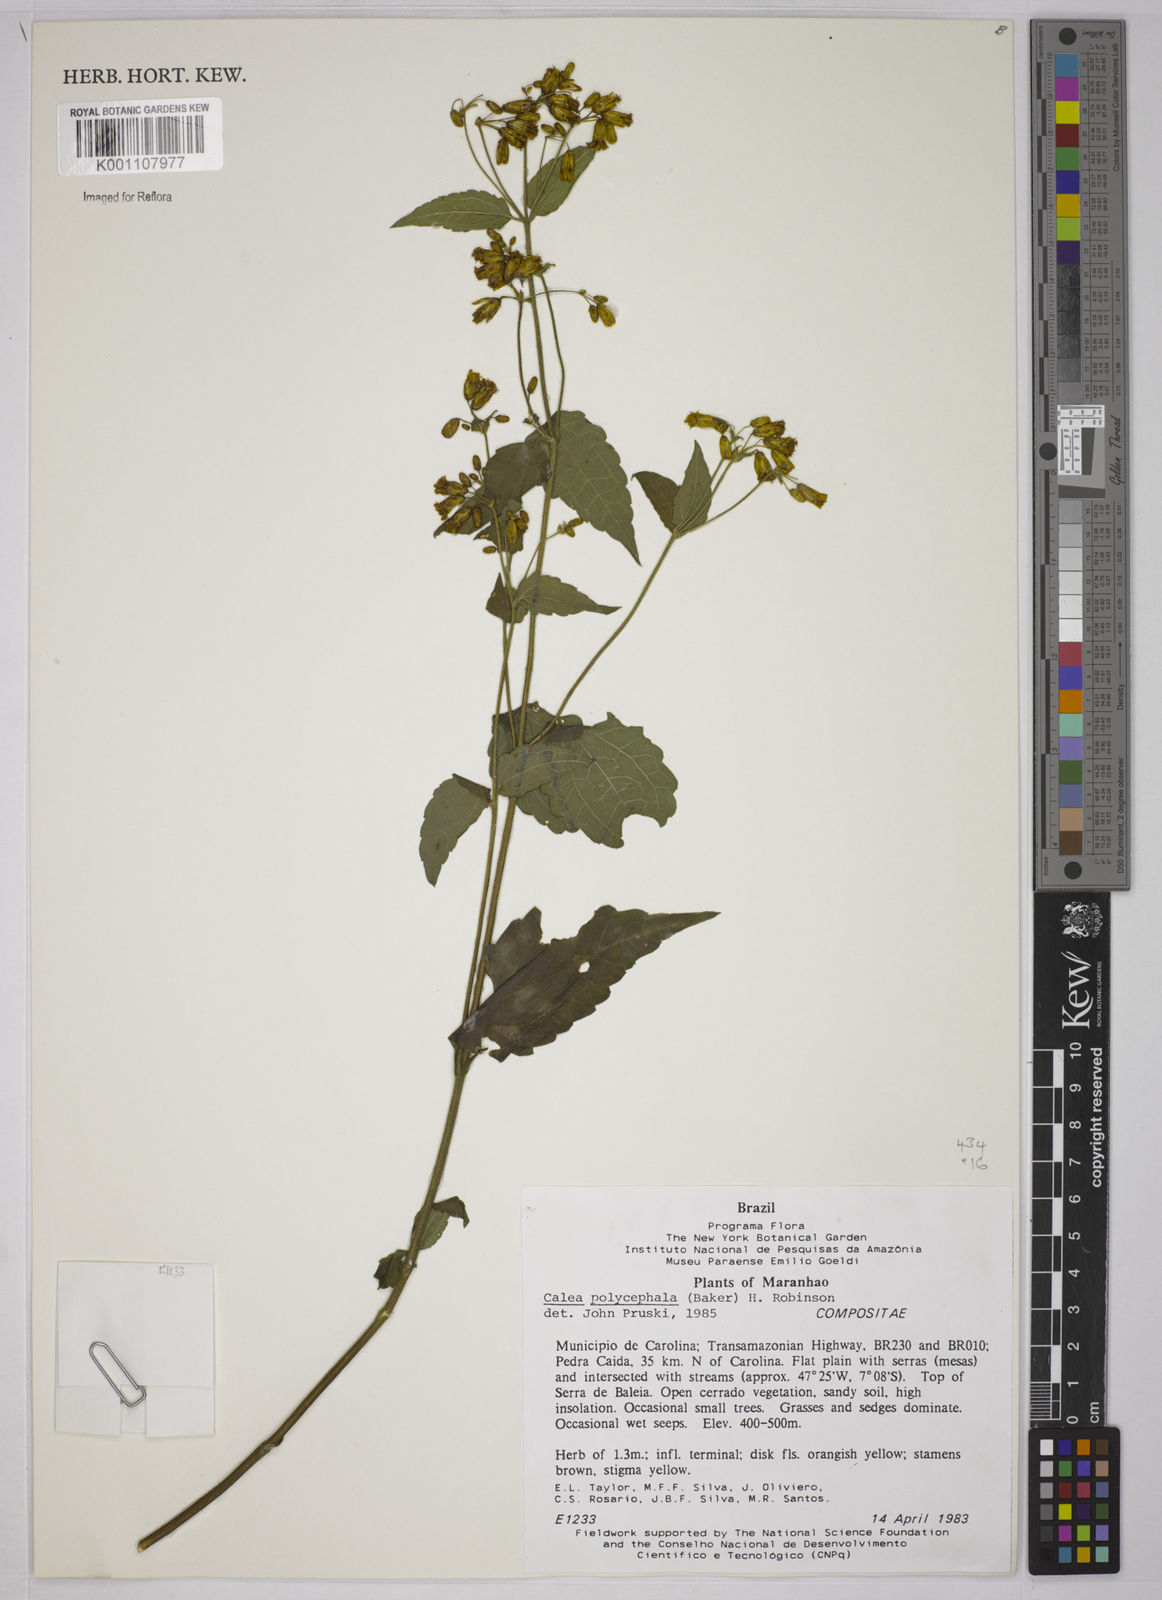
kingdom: Plantae
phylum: Tracheophyta
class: Magnoliopsida
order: Asterales
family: Asteraceae
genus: Calea
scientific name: Calea polycephala
